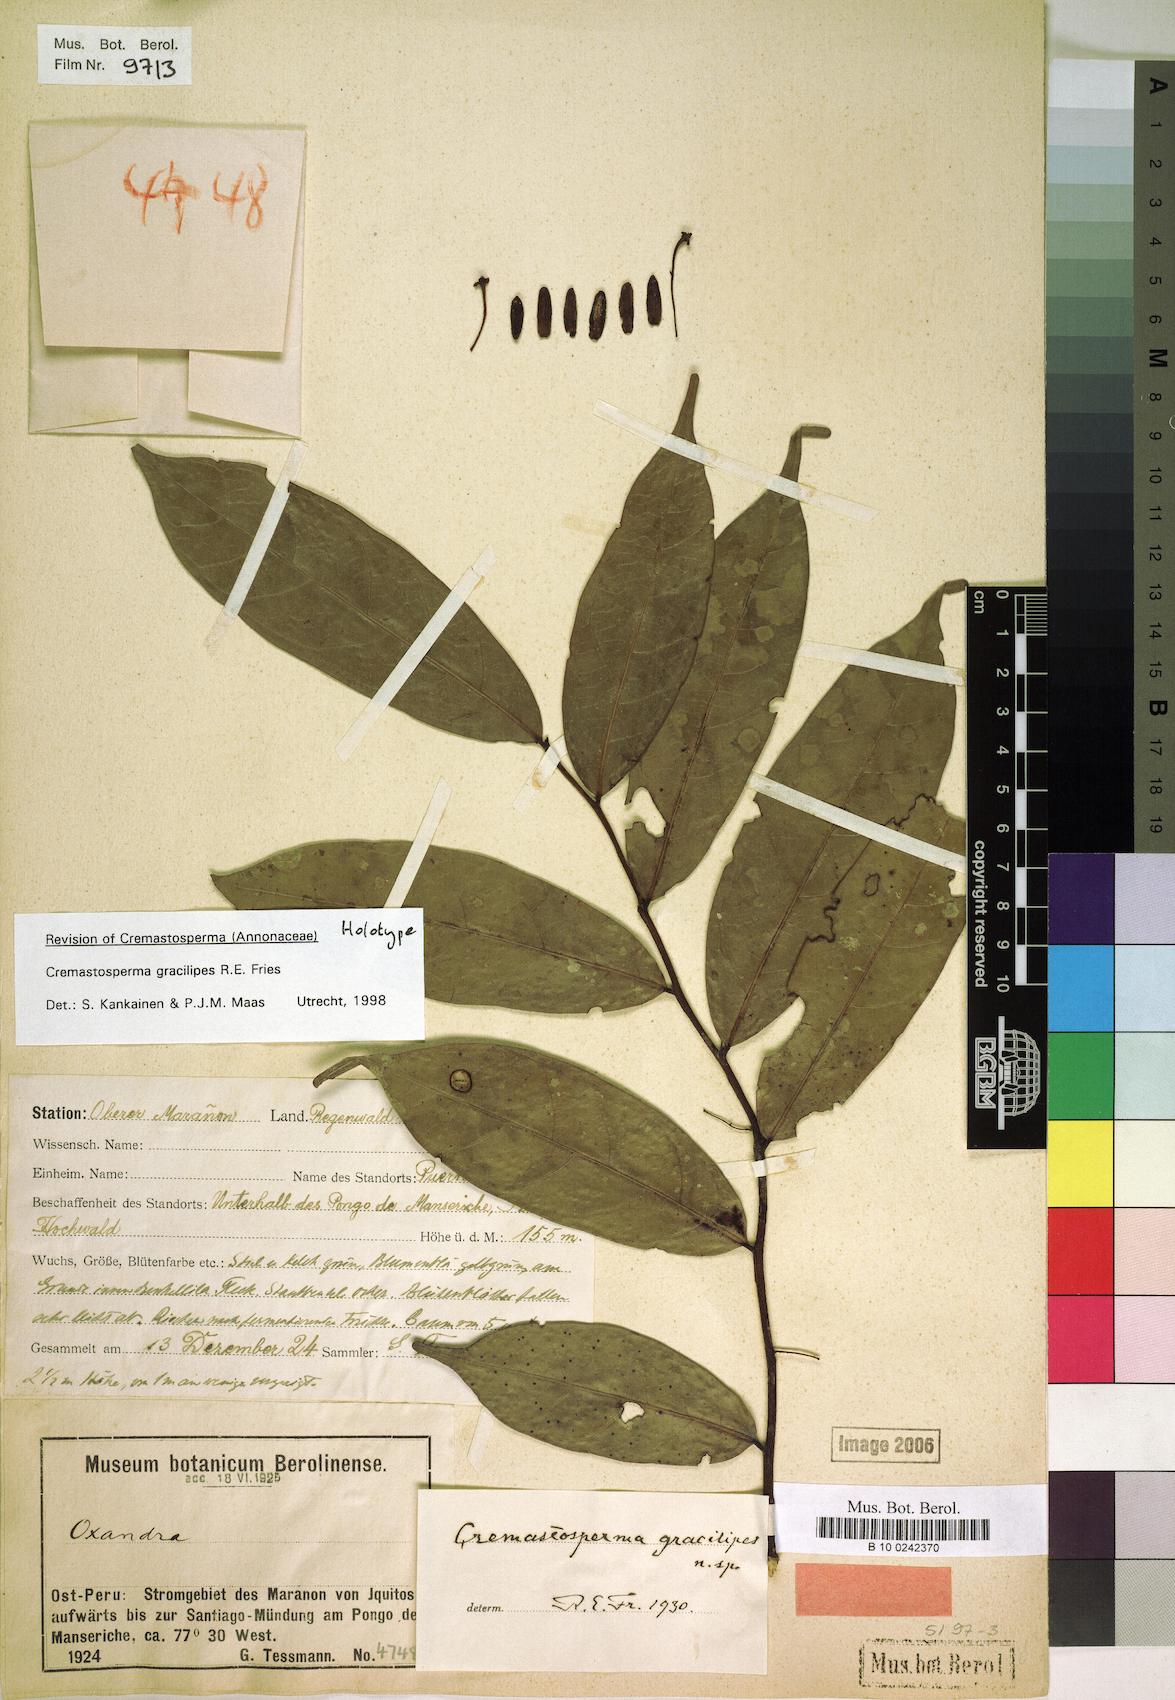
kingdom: Plantae
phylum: Tracheophyta
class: Magnoliopsida
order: Magnoliales
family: Annonaceae
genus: Cremastosperma
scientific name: Cremastosperma gracilipes
